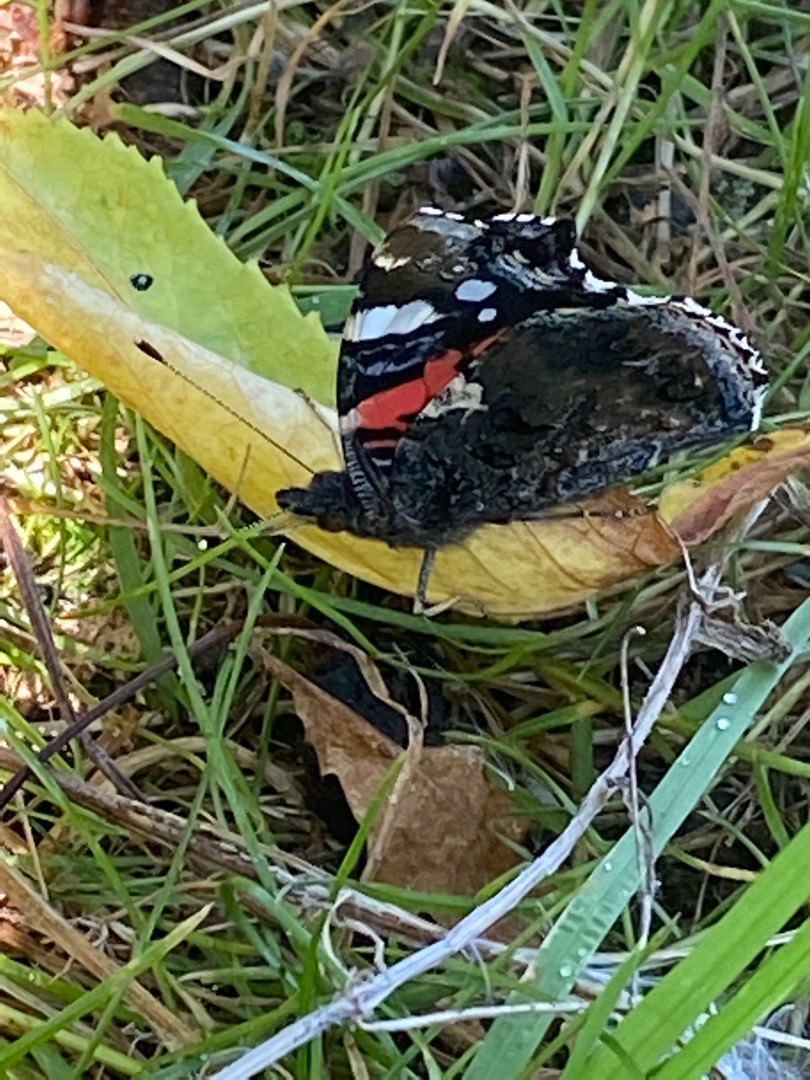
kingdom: Animalia
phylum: Arthropoda
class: Insecta
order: Lepidoptera
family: Nymphalidae
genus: Vanessa
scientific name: Vanessa atalanta
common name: Admiral
